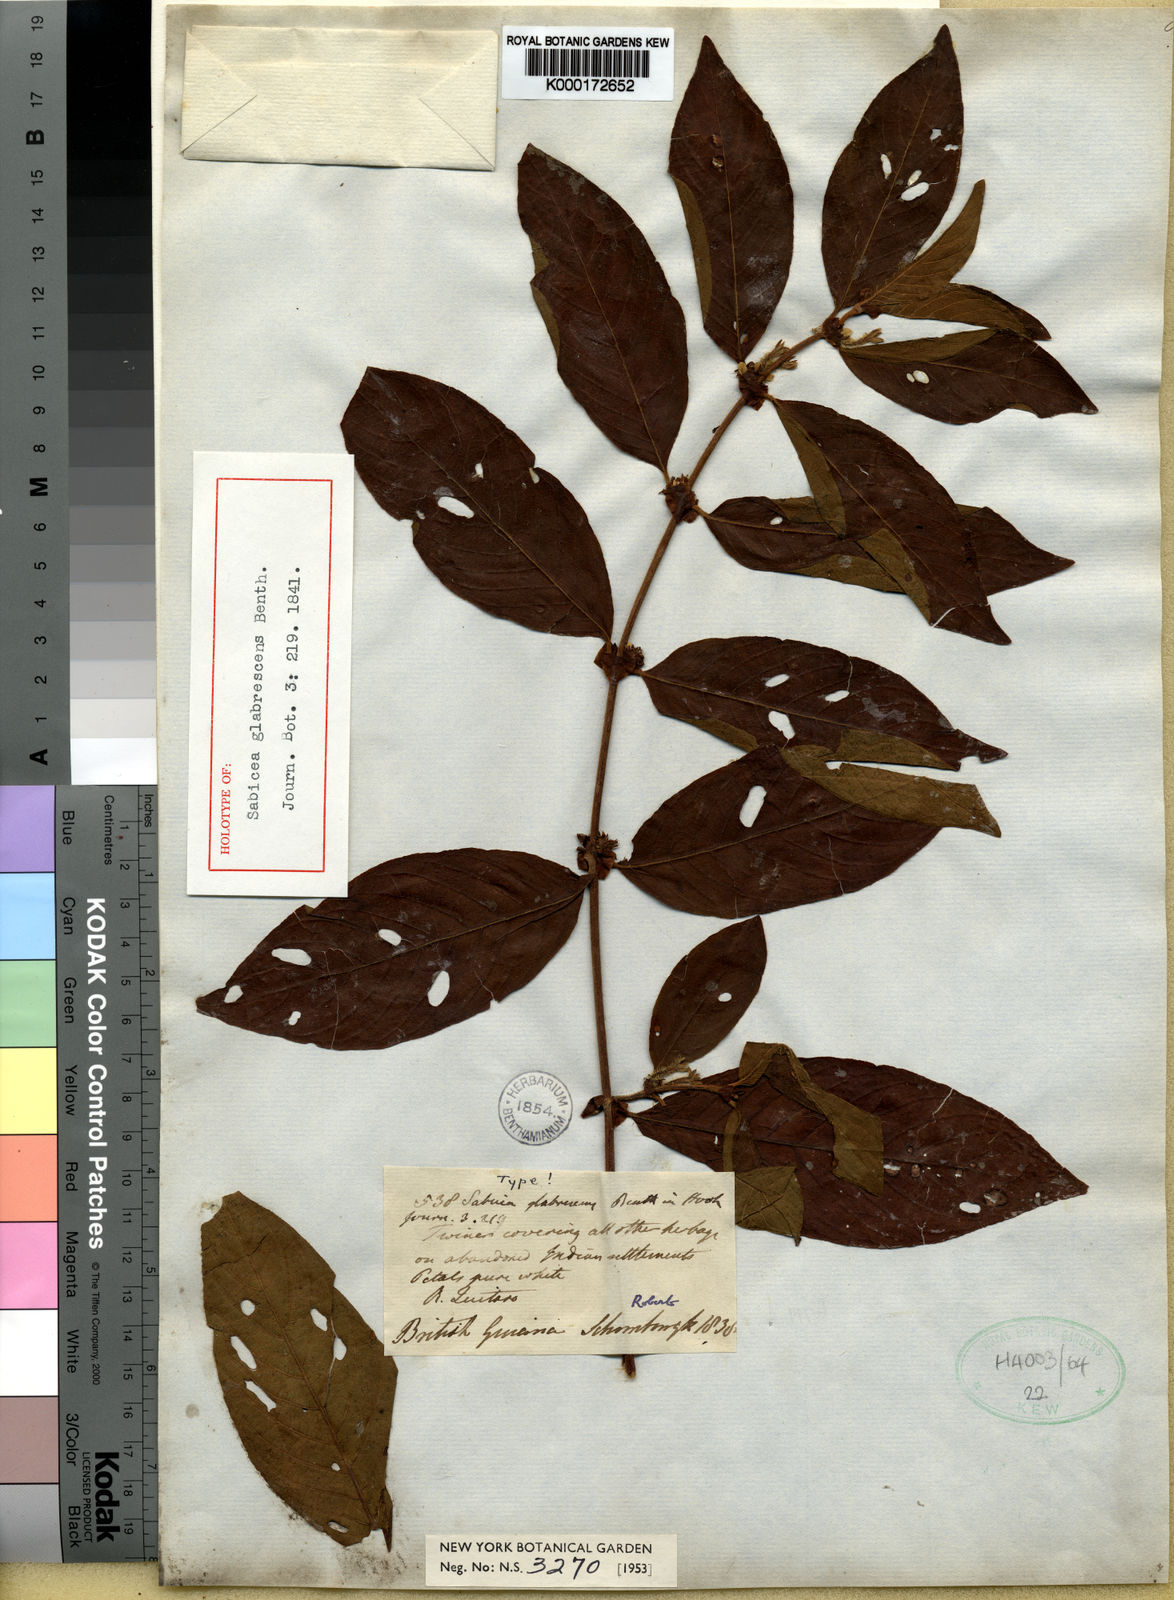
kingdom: Plantae
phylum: Tracheophyta
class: Magnoliopsida
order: Gentianales
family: Rubiaceae
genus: Sabicea
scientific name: Sabicea glabrescens
